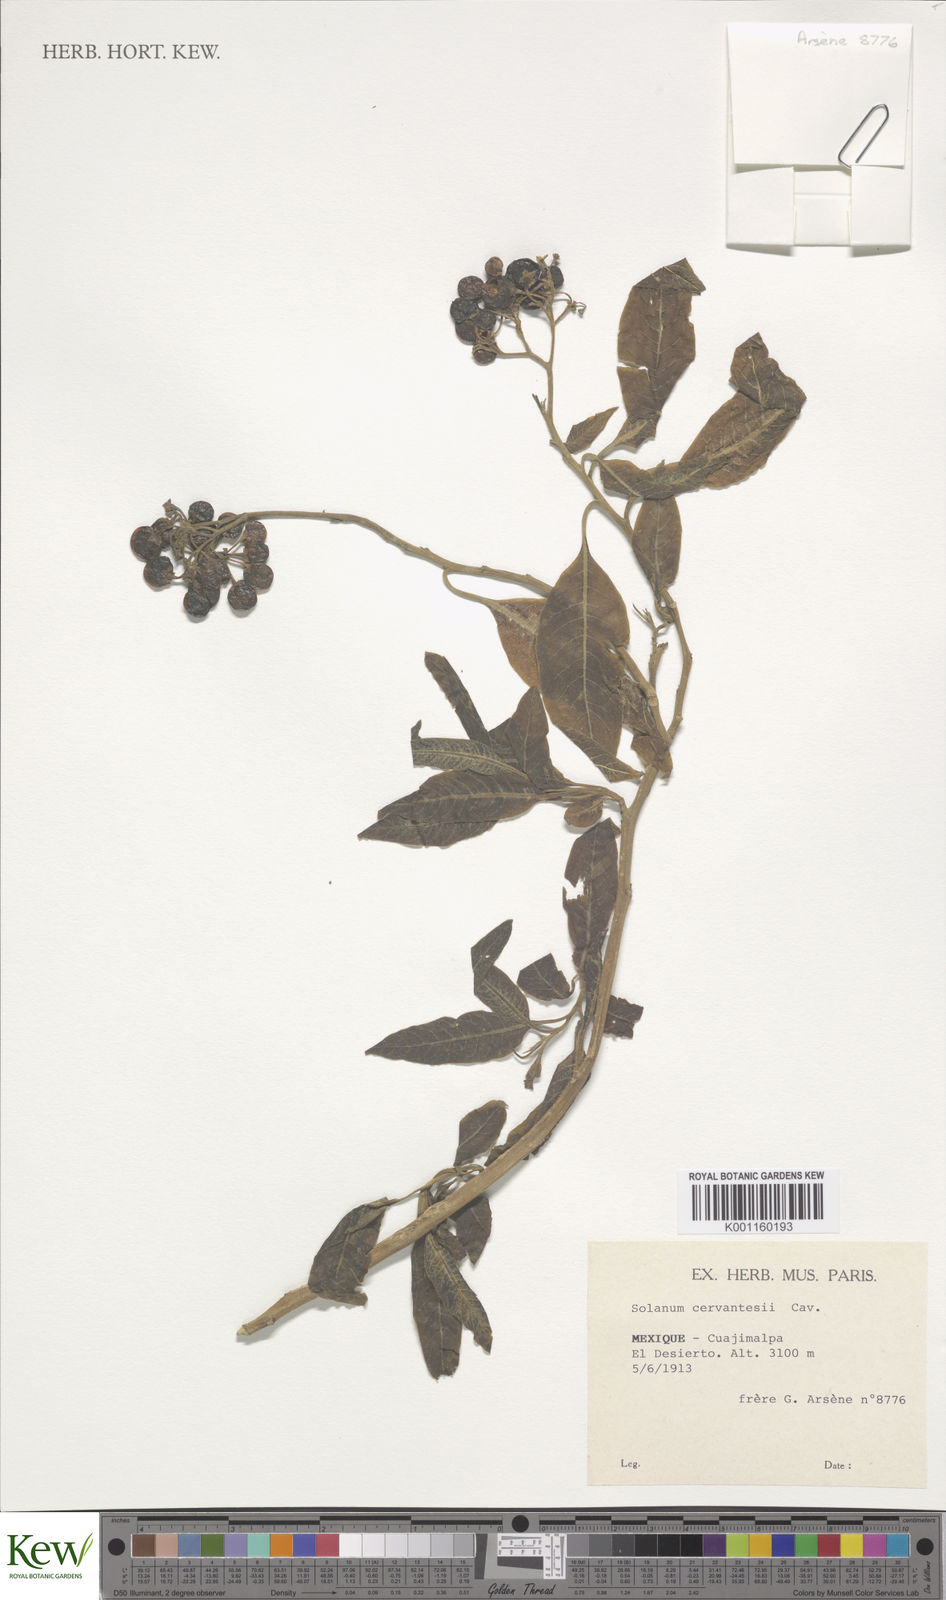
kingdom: Plantae
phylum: Tracheophyta
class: Magnoliopsida
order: Solanales
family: Solanaceae
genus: Solanum
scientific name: Solanum pubigerum
